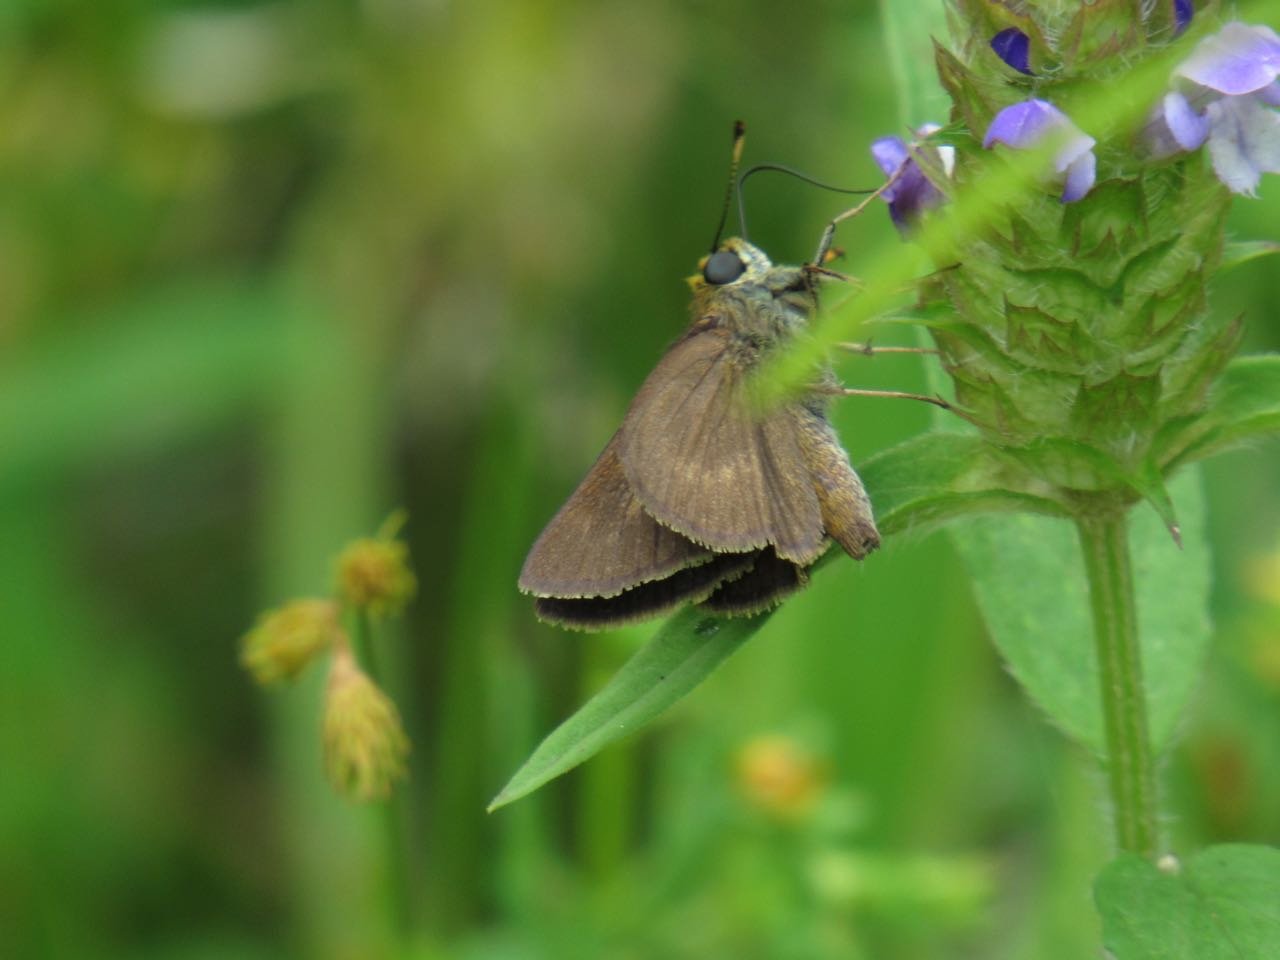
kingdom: Animalia
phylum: Arthropoda
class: Insecta
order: Lepidoptera
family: Hesperiidae
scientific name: Hesperiidae
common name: Skippers
